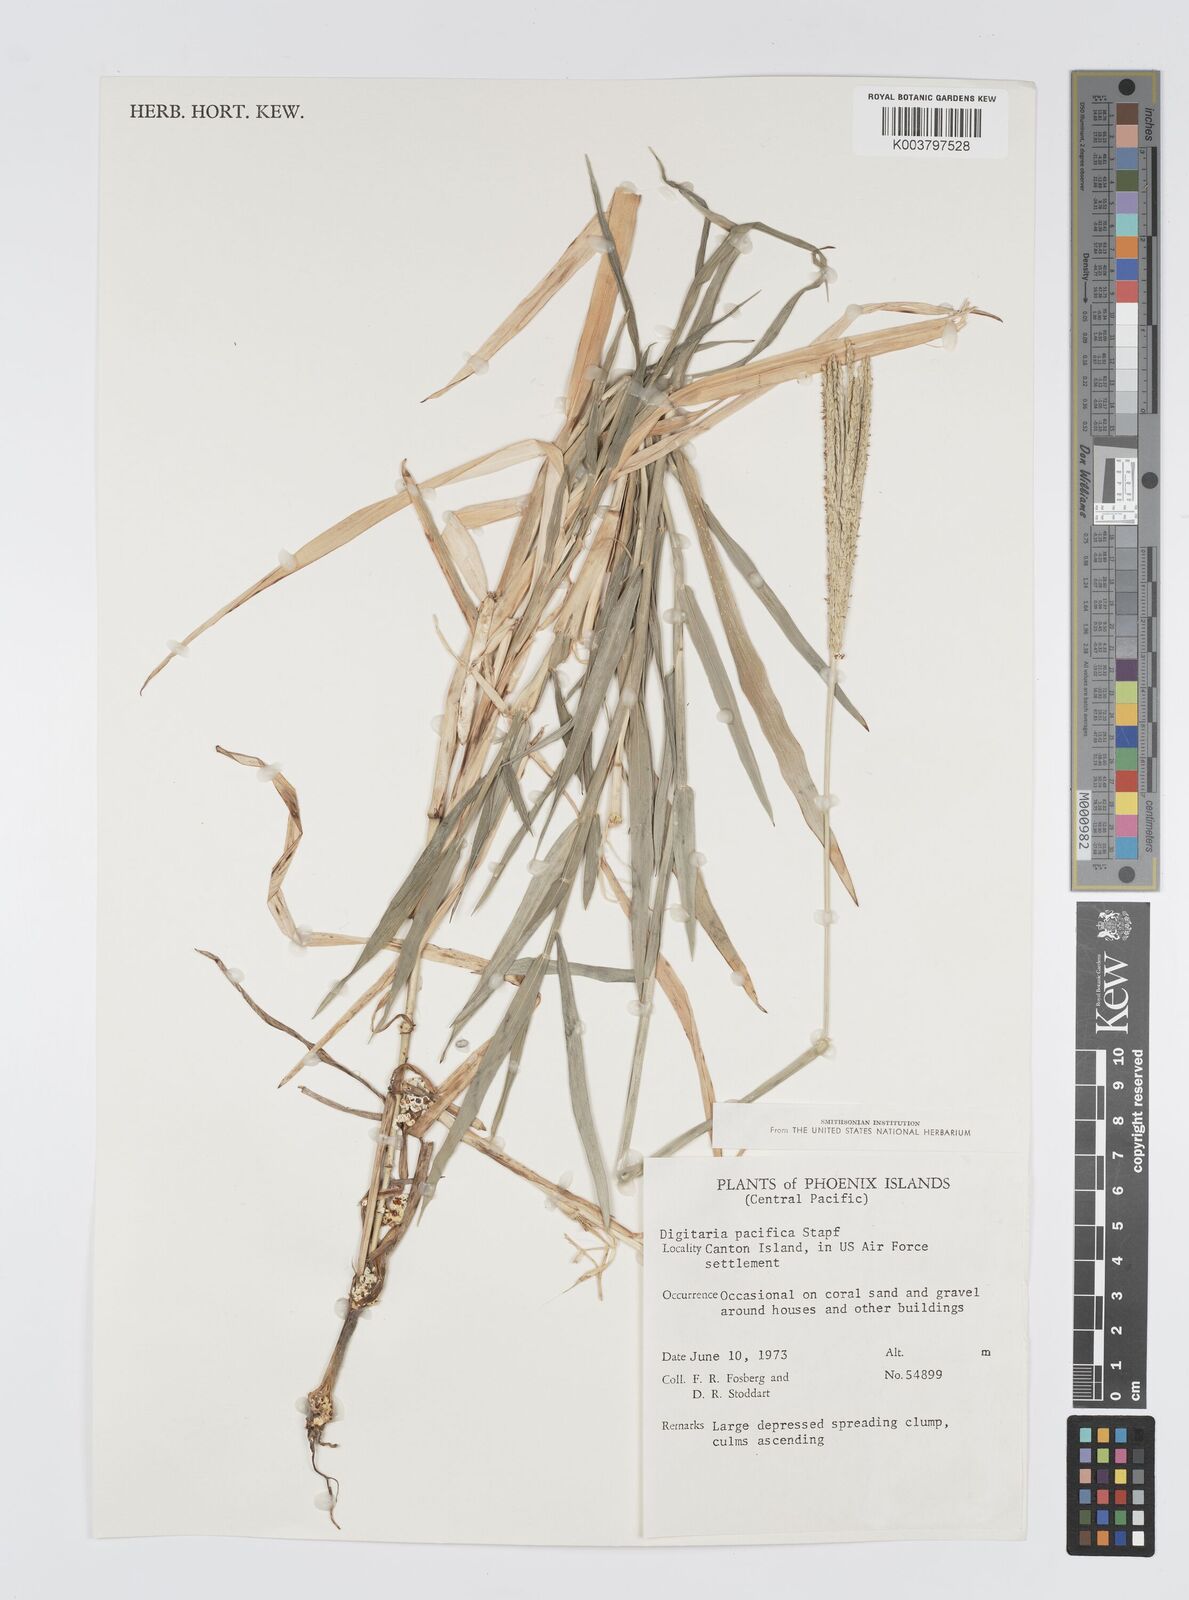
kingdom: Plantae
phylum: Tracheophyta
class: Liliopsida
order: Poales
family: Poaceae
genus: Digitaria
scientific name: Digitaria stenotaphrodes
